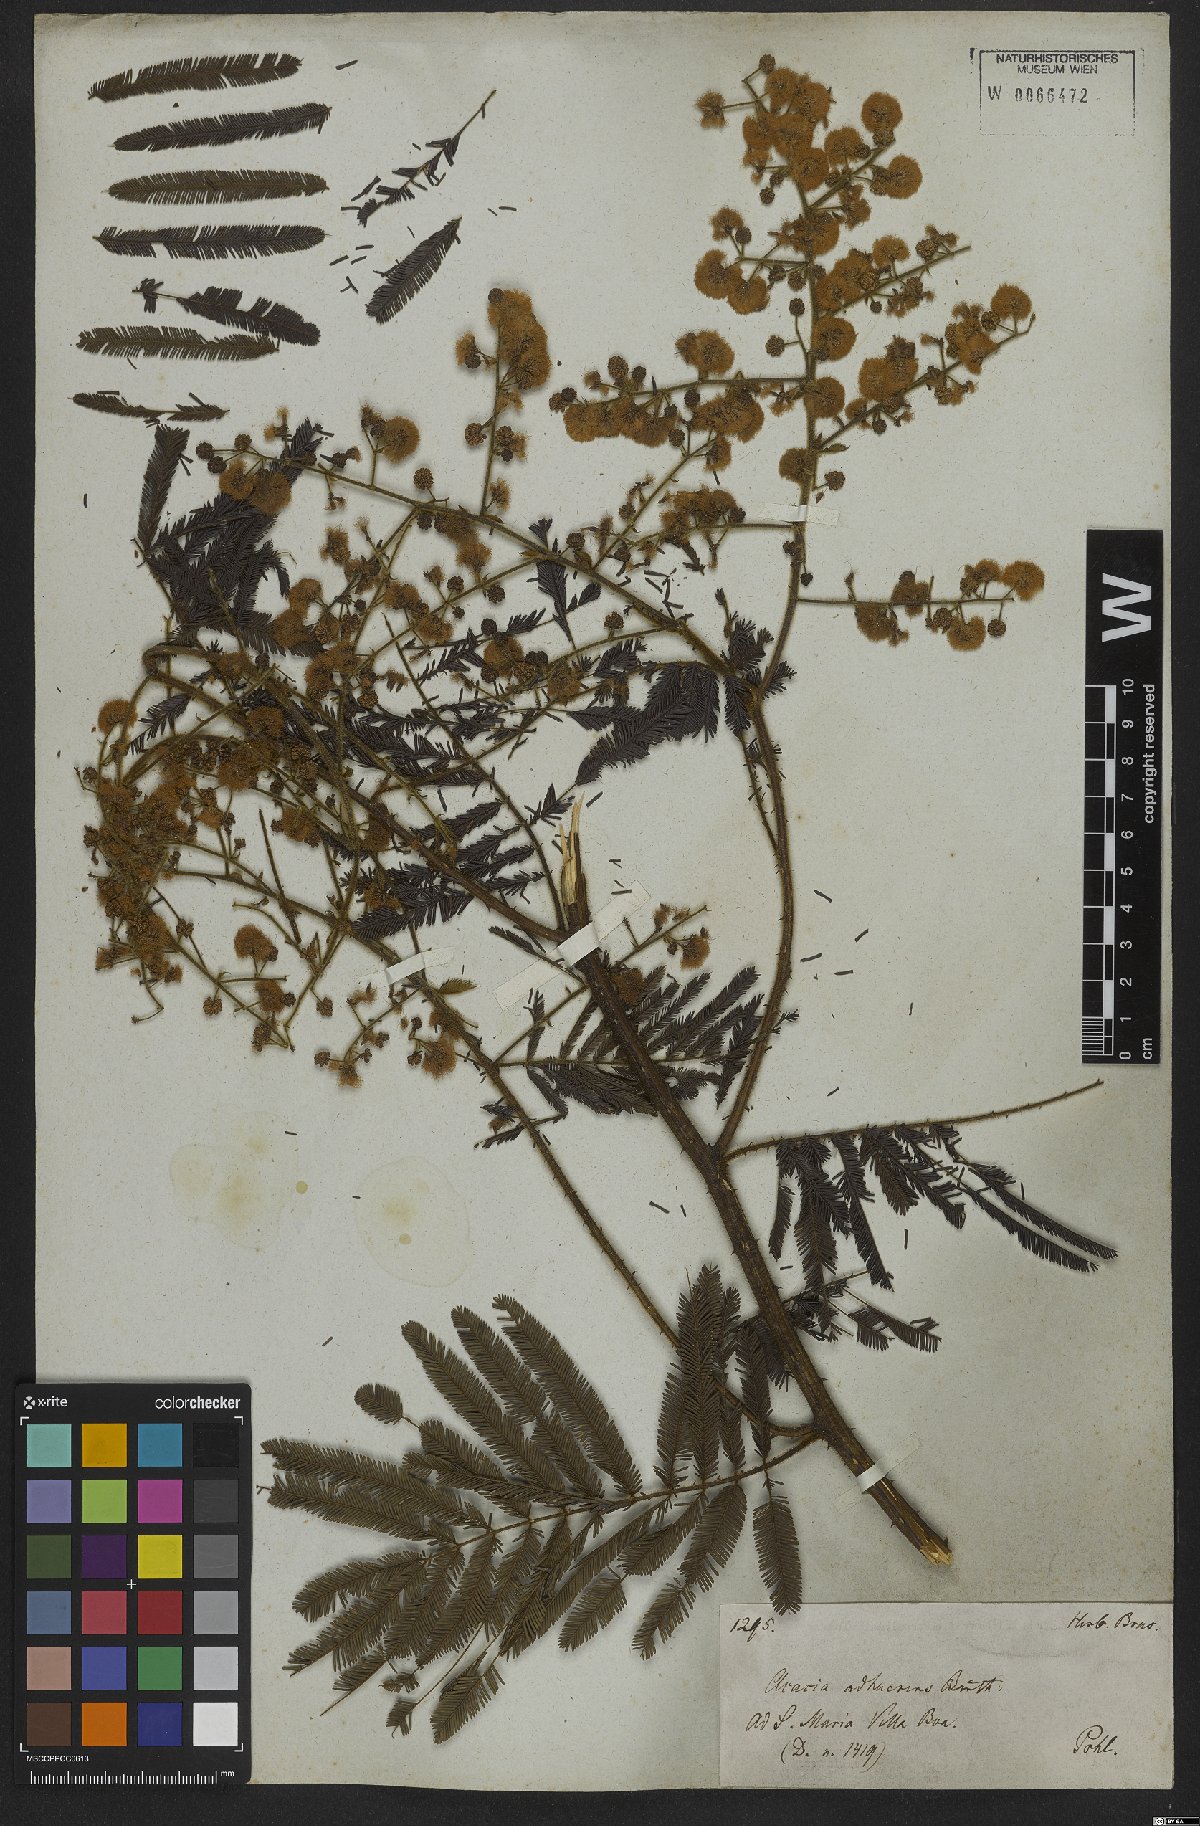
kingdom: Plantae
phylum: Tracheophyta
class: Magnoliopsida
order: Fabales
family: Fabaceae
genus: Senegalia
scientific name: Senegalia martiusiana
